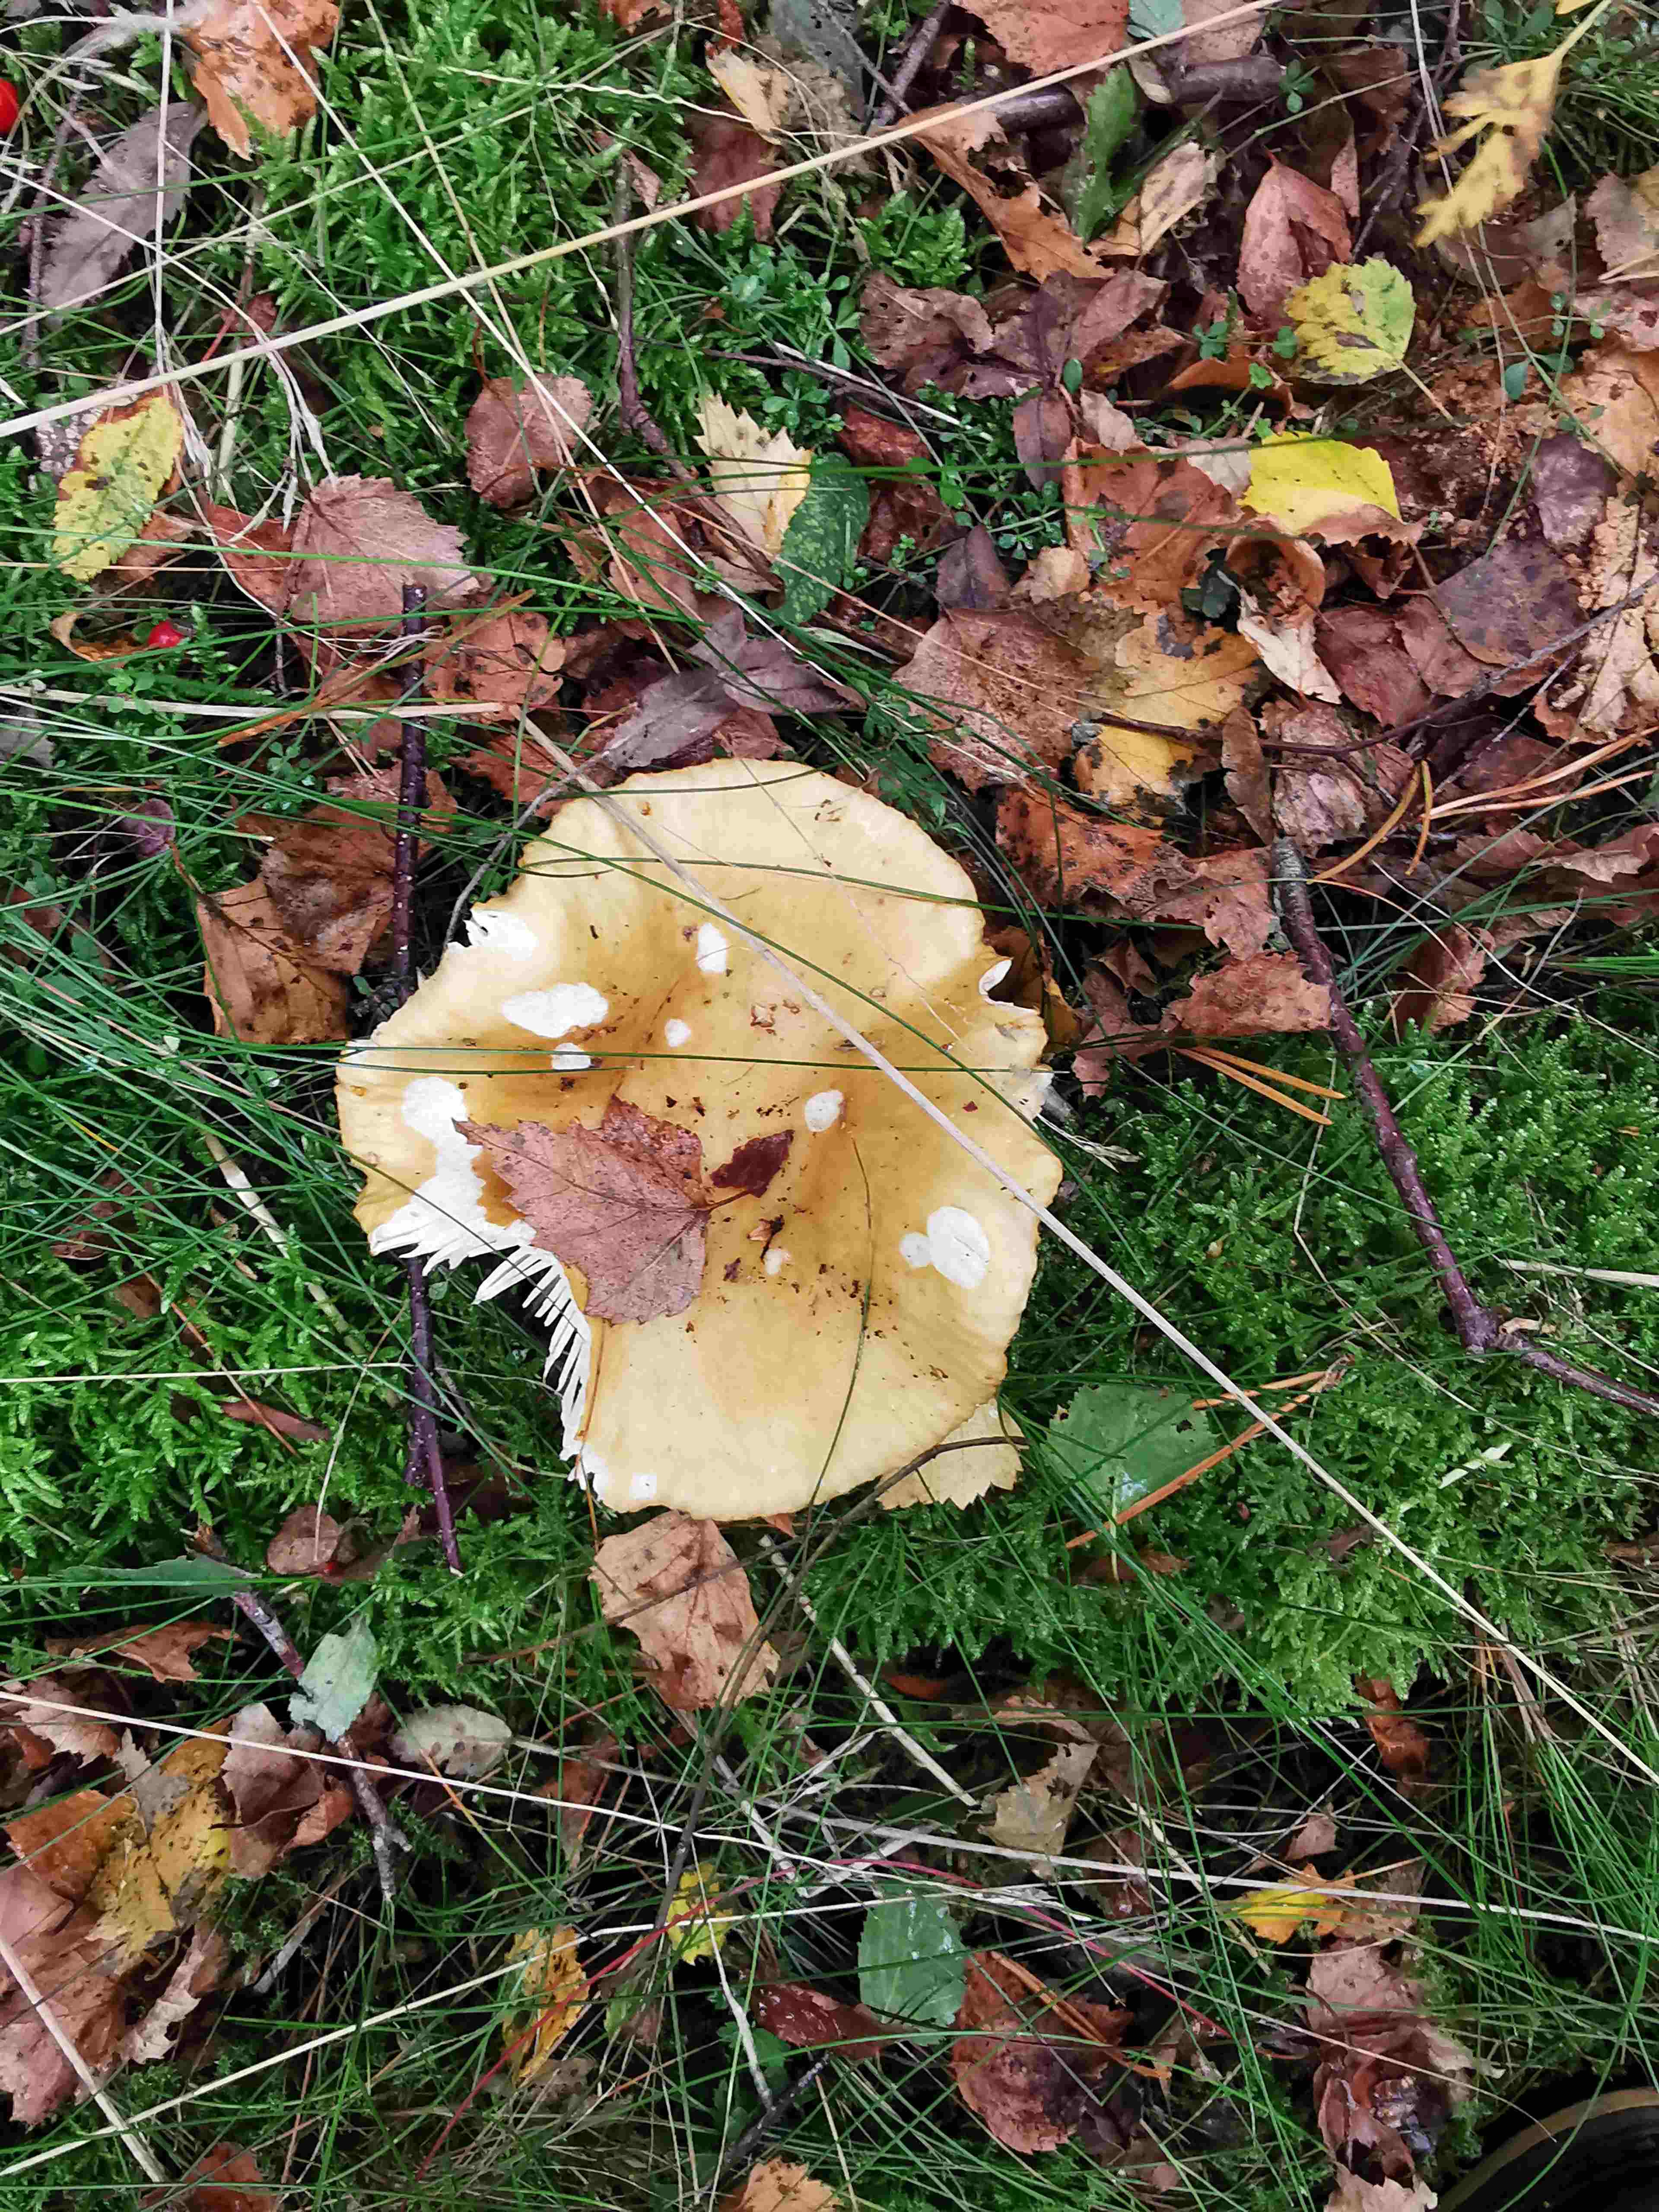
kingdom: Fungi
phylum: Basidiomycota
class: Agaricomycetes
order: Russulales
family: Russulaceae
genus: Russula
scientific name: Russula ochroleuca
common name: okkergul skørhat
